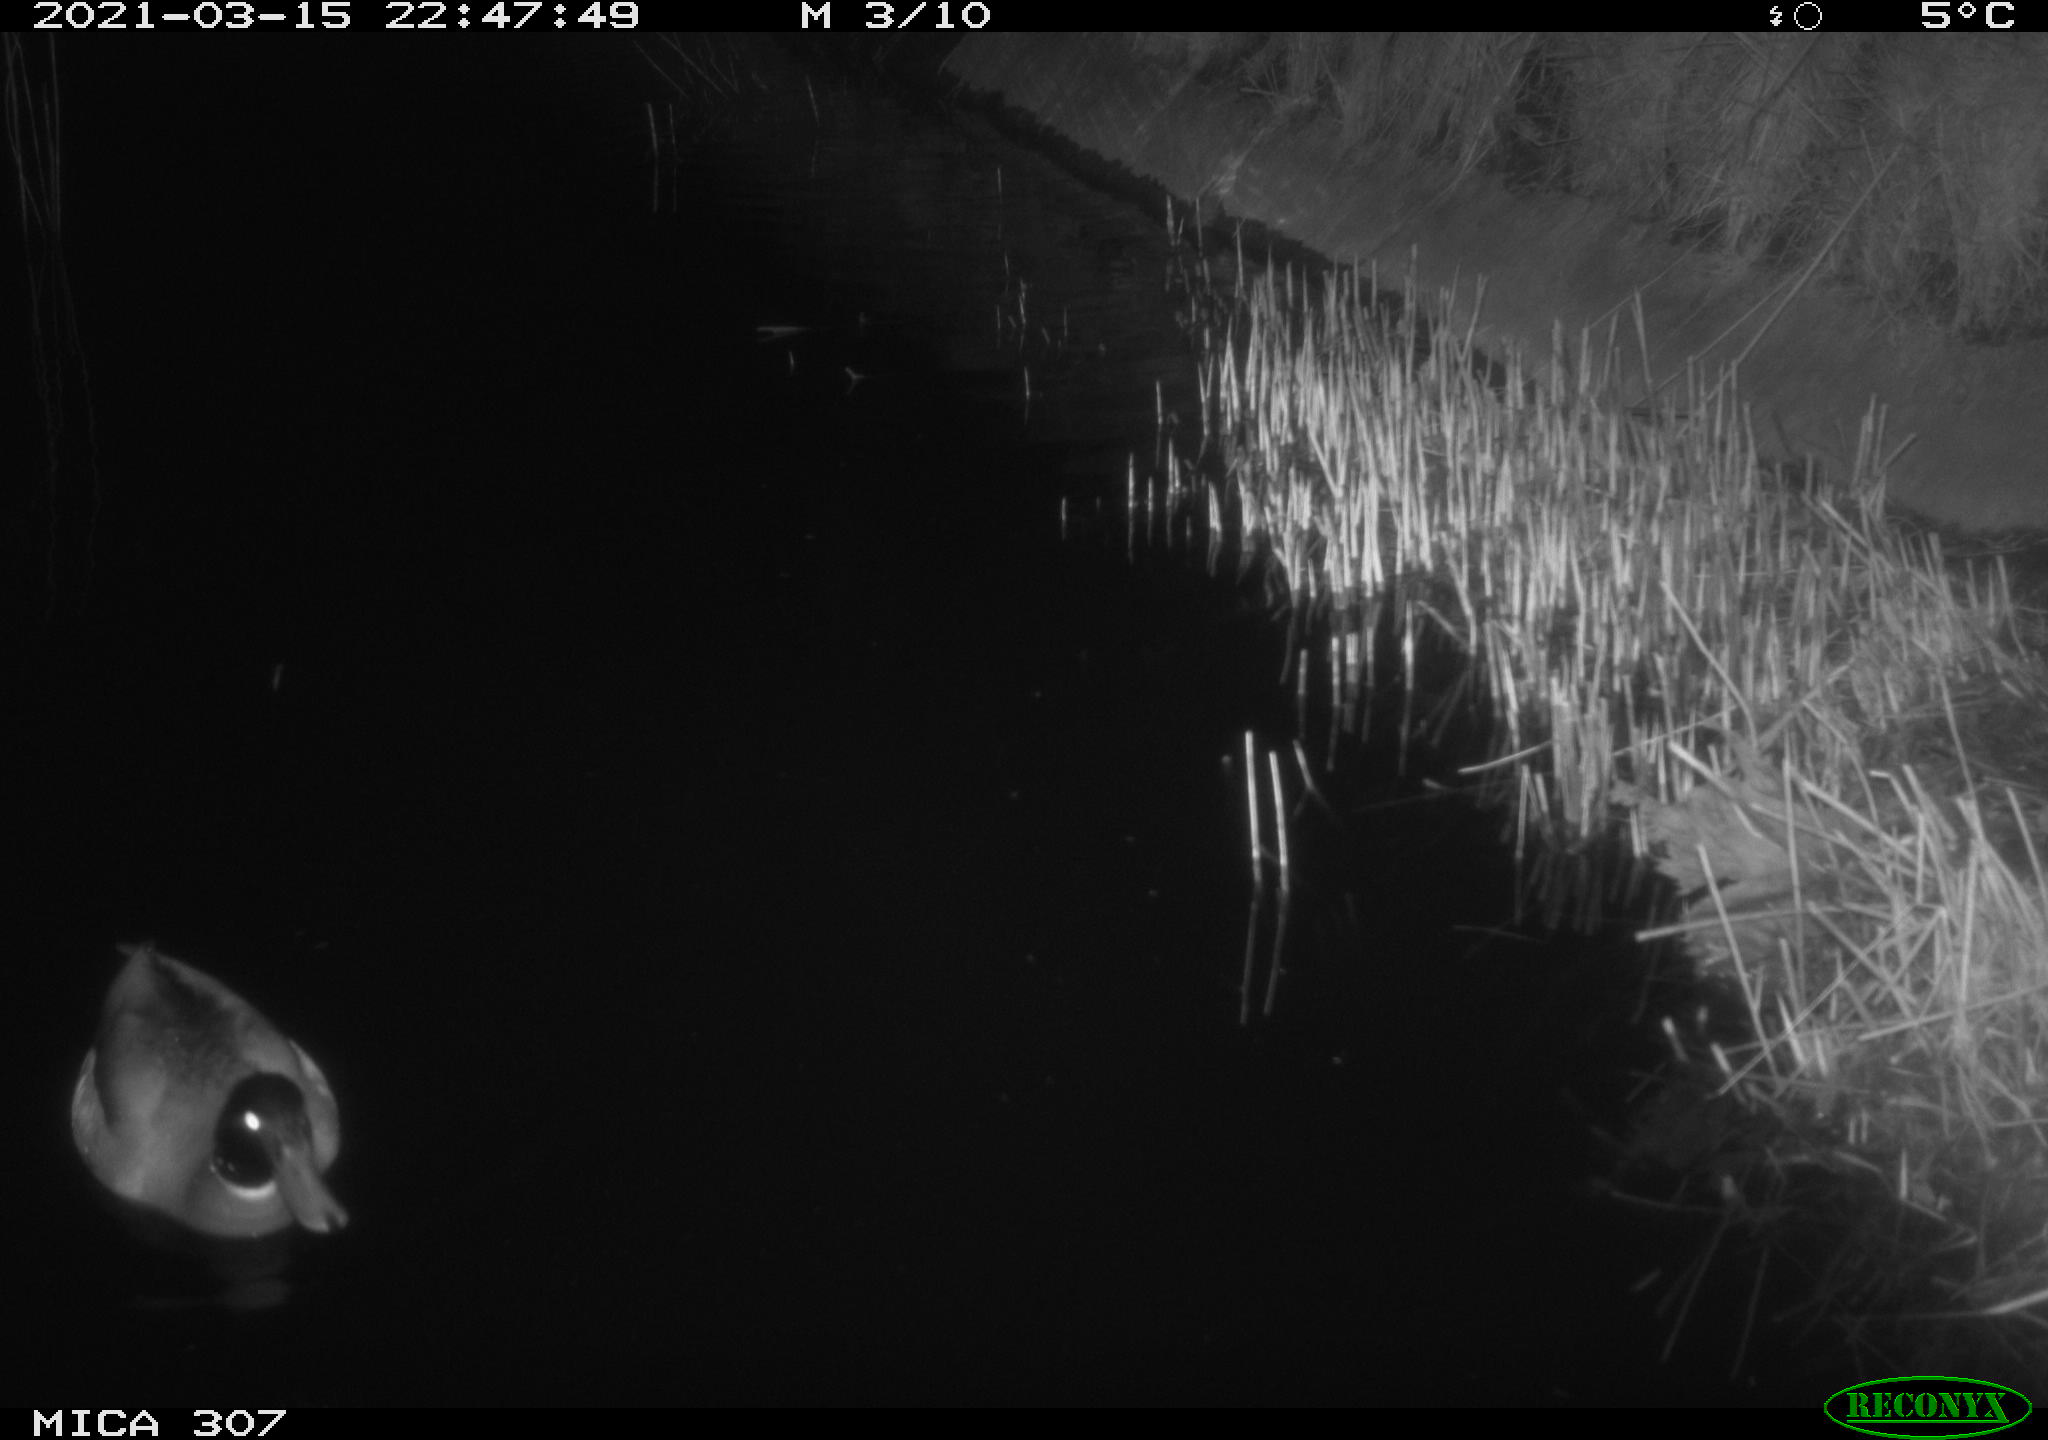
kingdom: Animalia
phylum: Chordata
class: Aves
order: Anseriformes
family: Anatidae
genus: Anas
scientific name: Anas platyrhynchos
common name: Mallard
